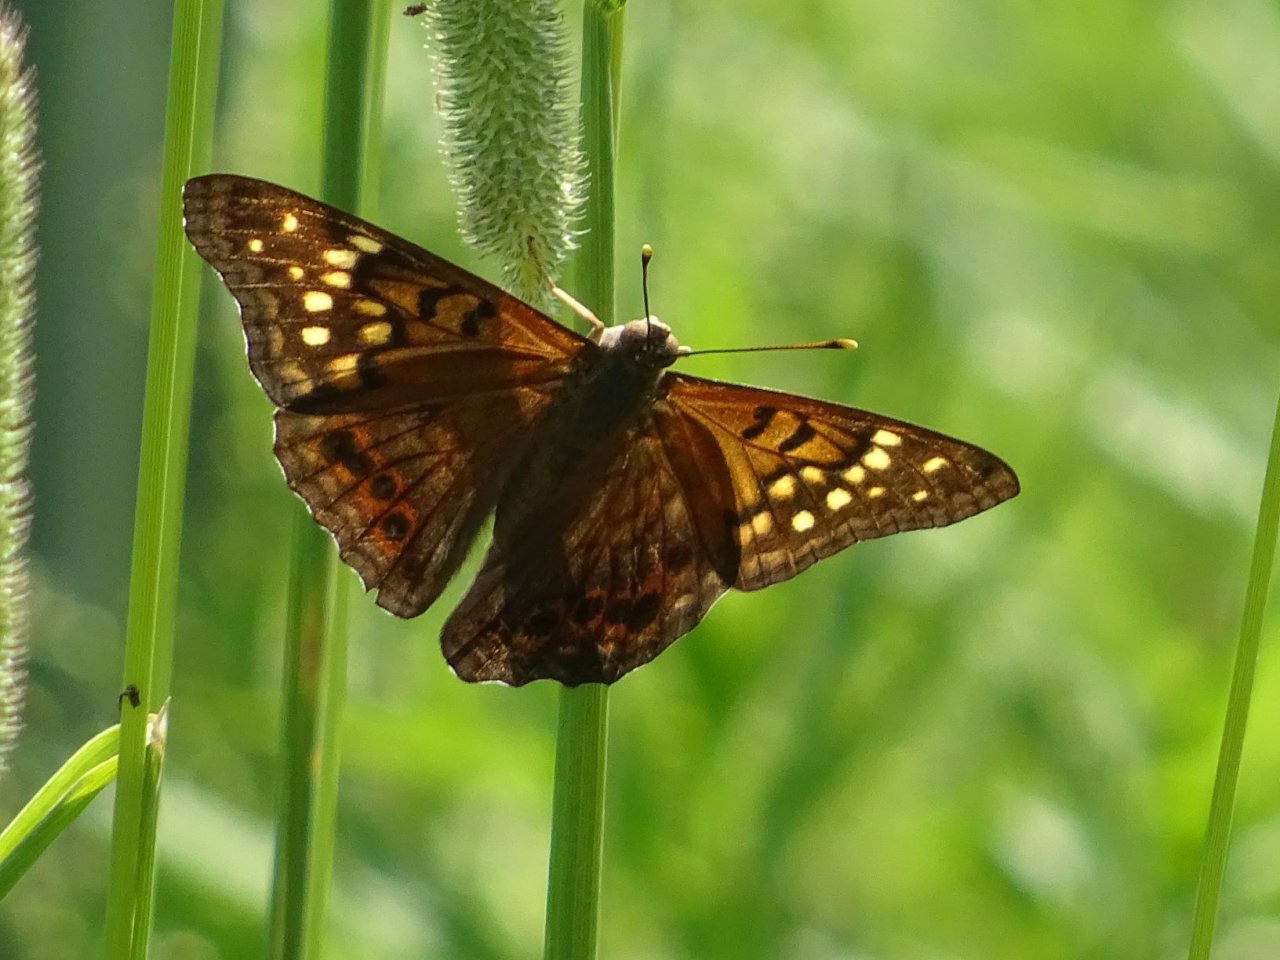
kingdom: Animalia
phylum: Arthropoda
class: Insecta
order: Lepidoptera
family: Nymphalidae
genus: Asterocampa
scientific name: Asterocampa clyton
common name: Tawny Emperor
